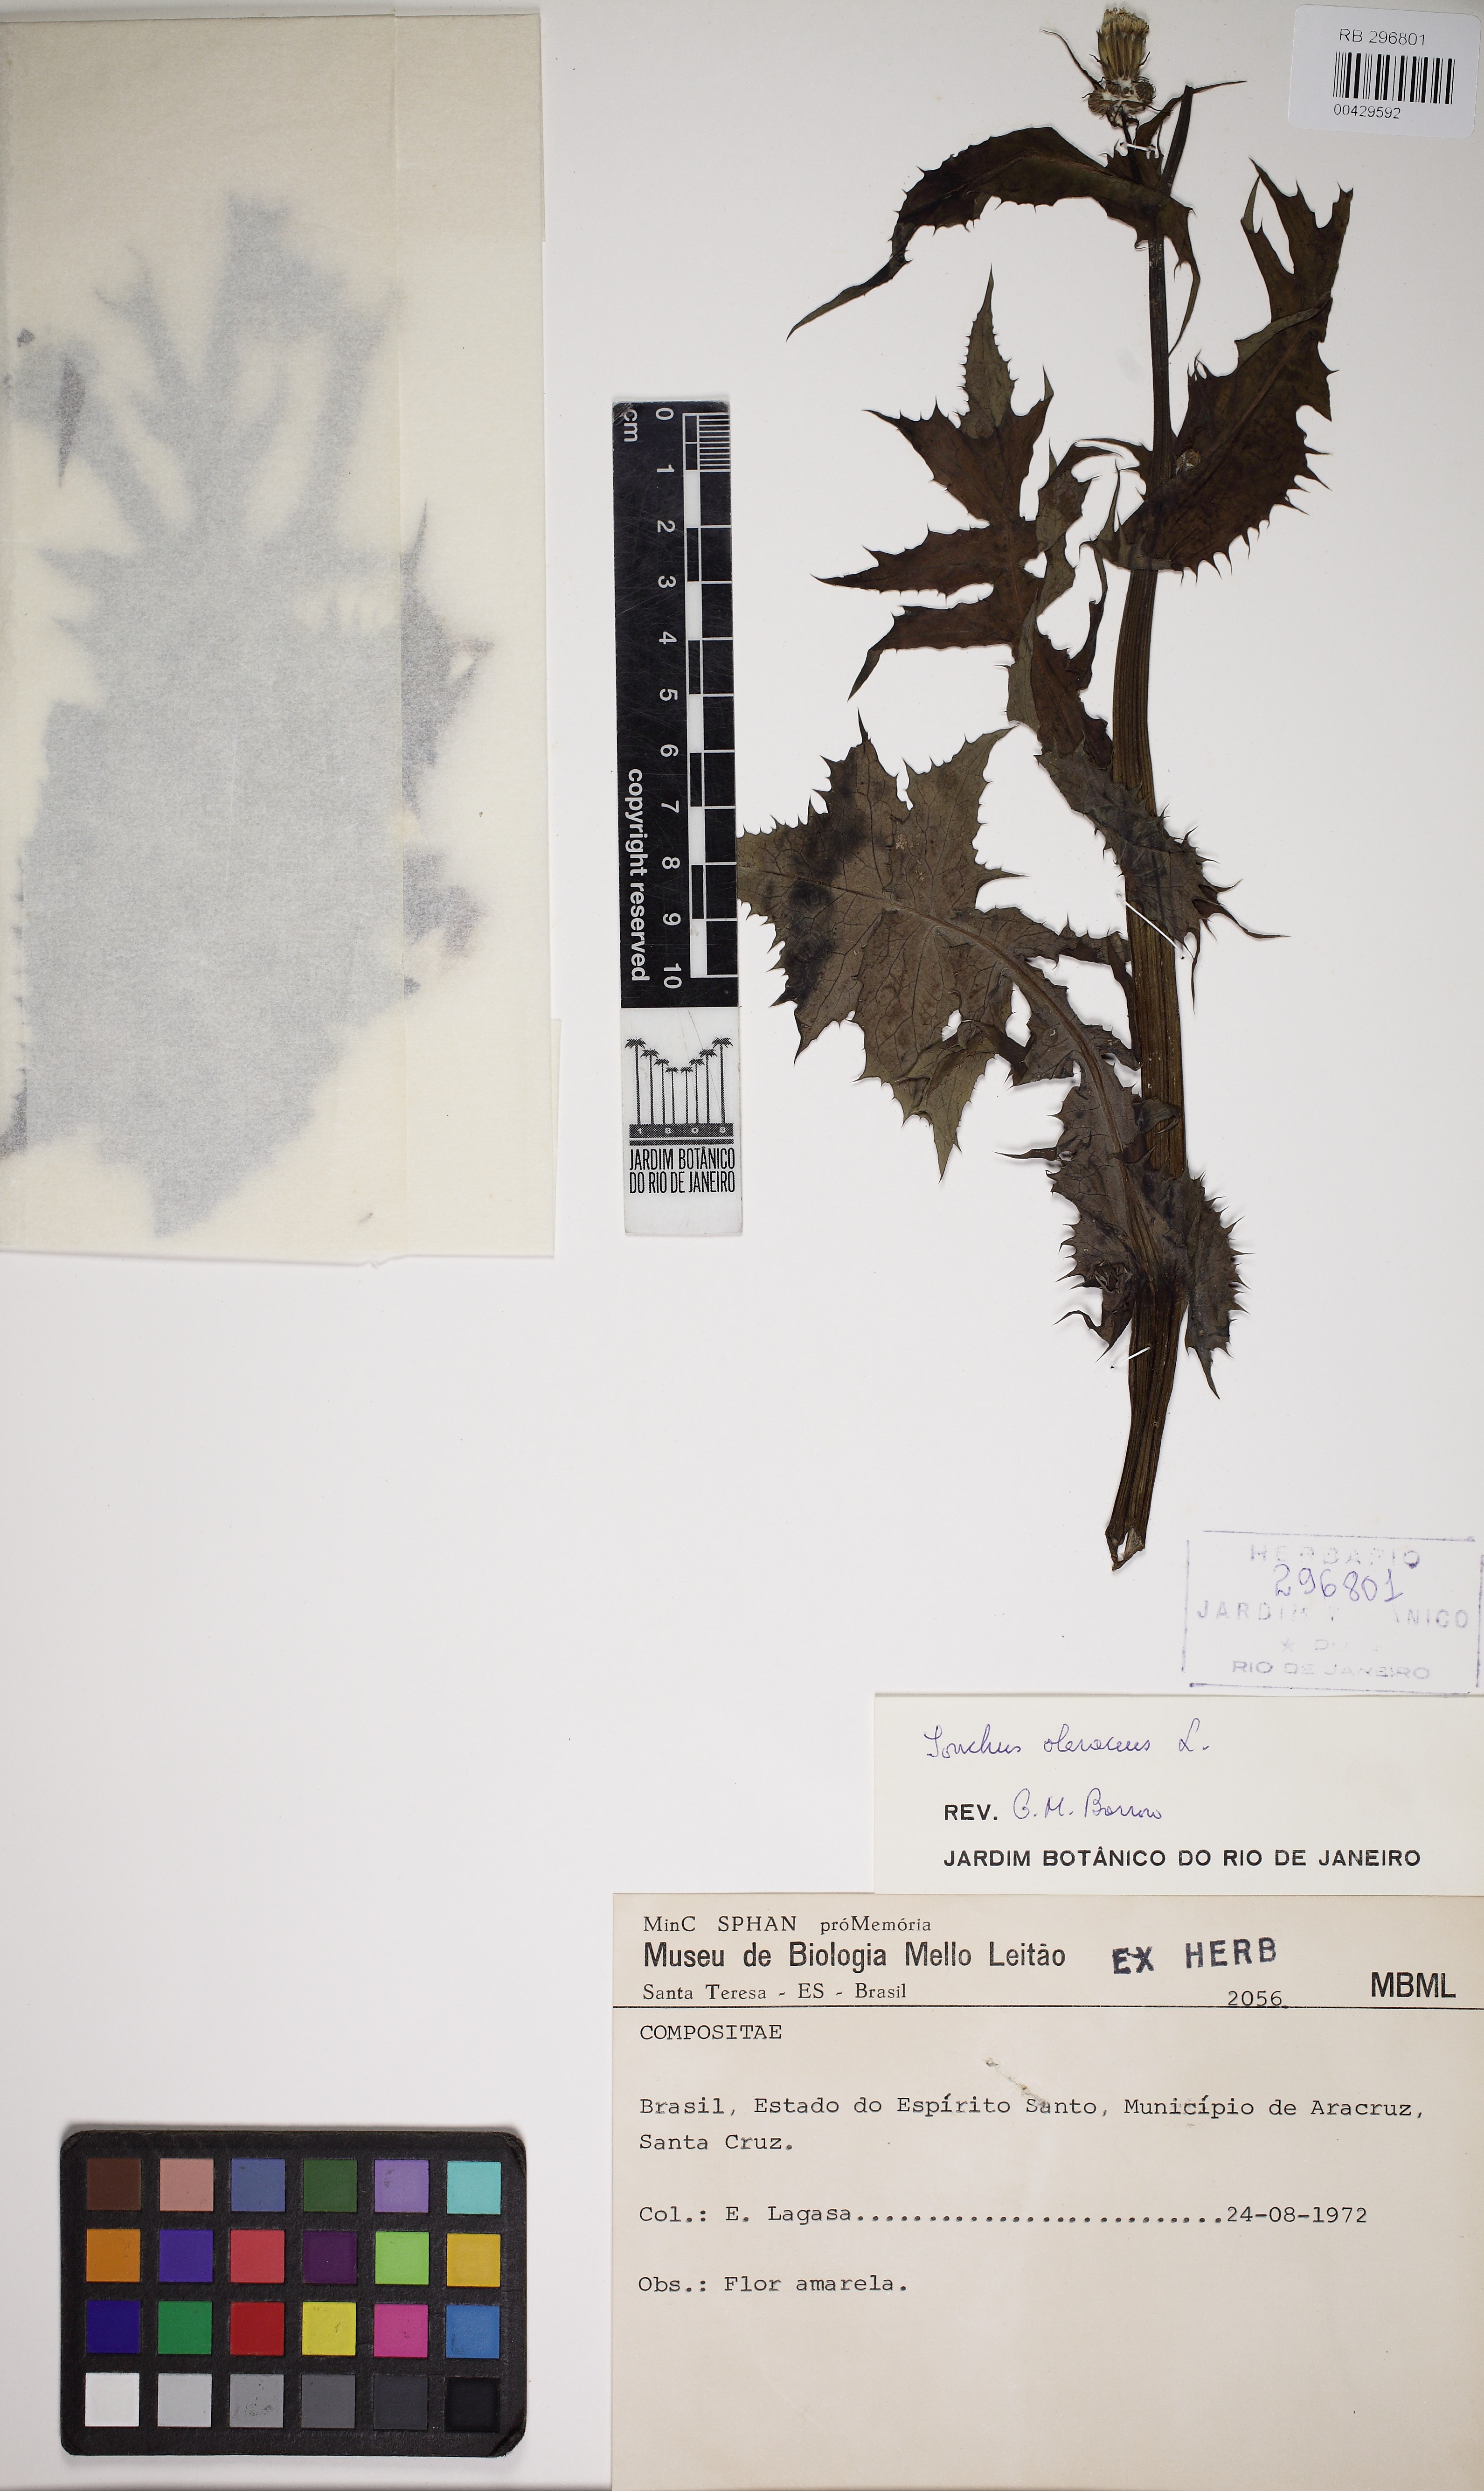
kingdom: Plantae
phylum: Tracheophyta
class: Magnoliopsida
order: Asterales
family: Asteraceae
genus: Sonchus
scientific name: Sonchus oleraceus
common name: Common sowthistle
